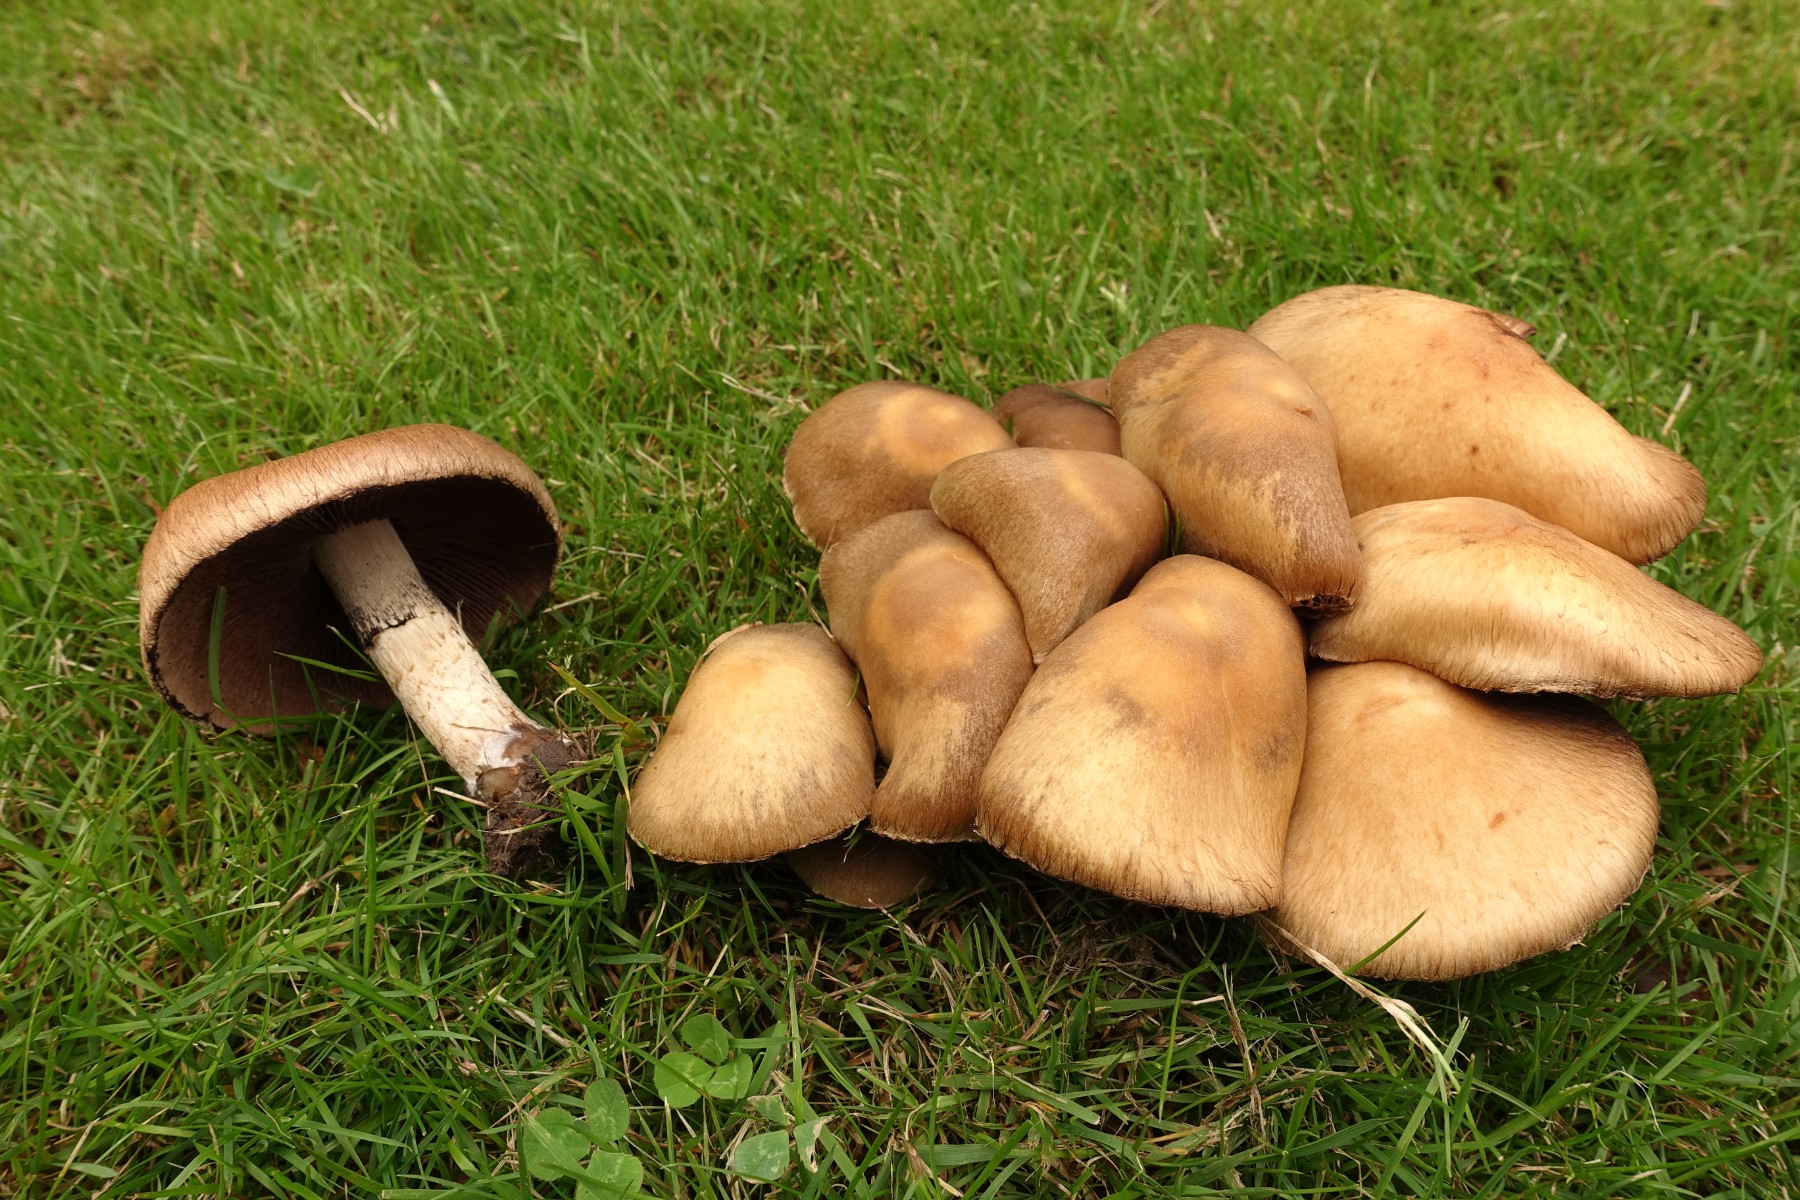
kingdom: Fungi
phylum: Basidiomycota
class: Agaricomycetes
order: Agaricales
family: Psathyrellaceae
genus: Lacrymaria
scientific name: Lacrymaria lacrymabunda
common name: grædende mørkhat
